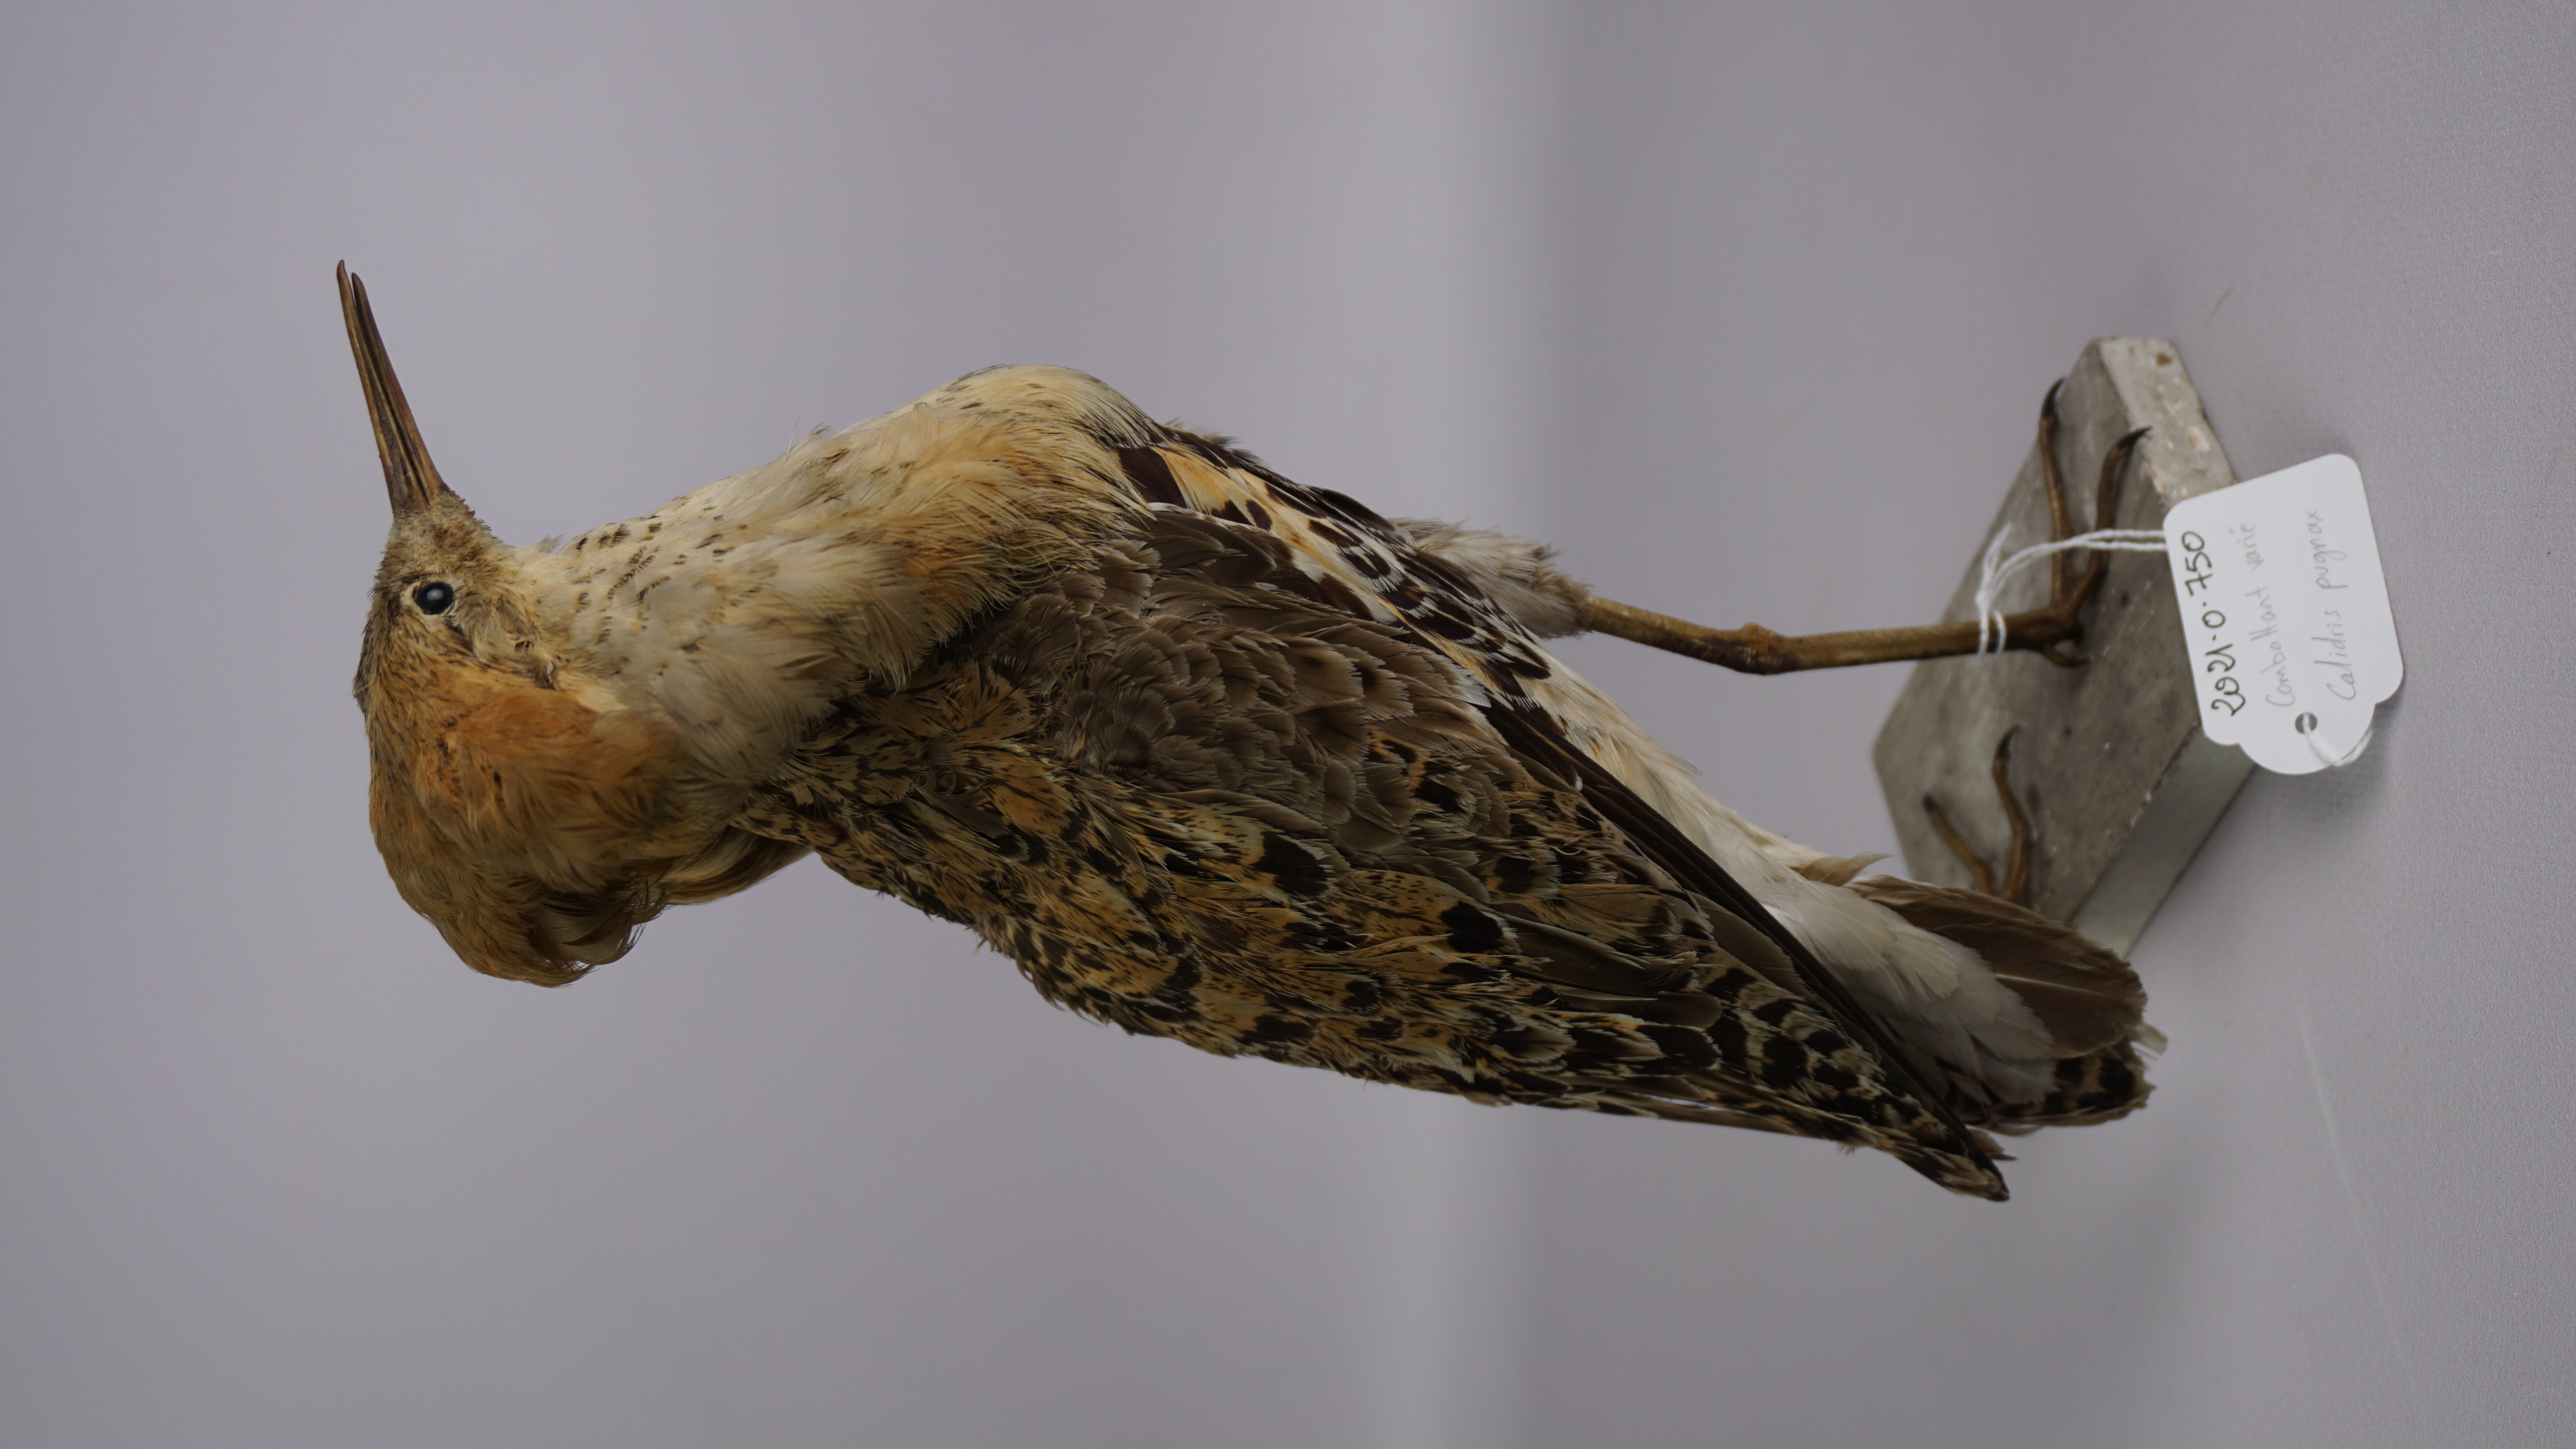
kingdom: Animalia
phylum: Chordata
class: Aves
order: Charadriiformes
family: Scolopacidae
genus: Calidris
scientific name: Calidris pugnax
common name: Ruff
